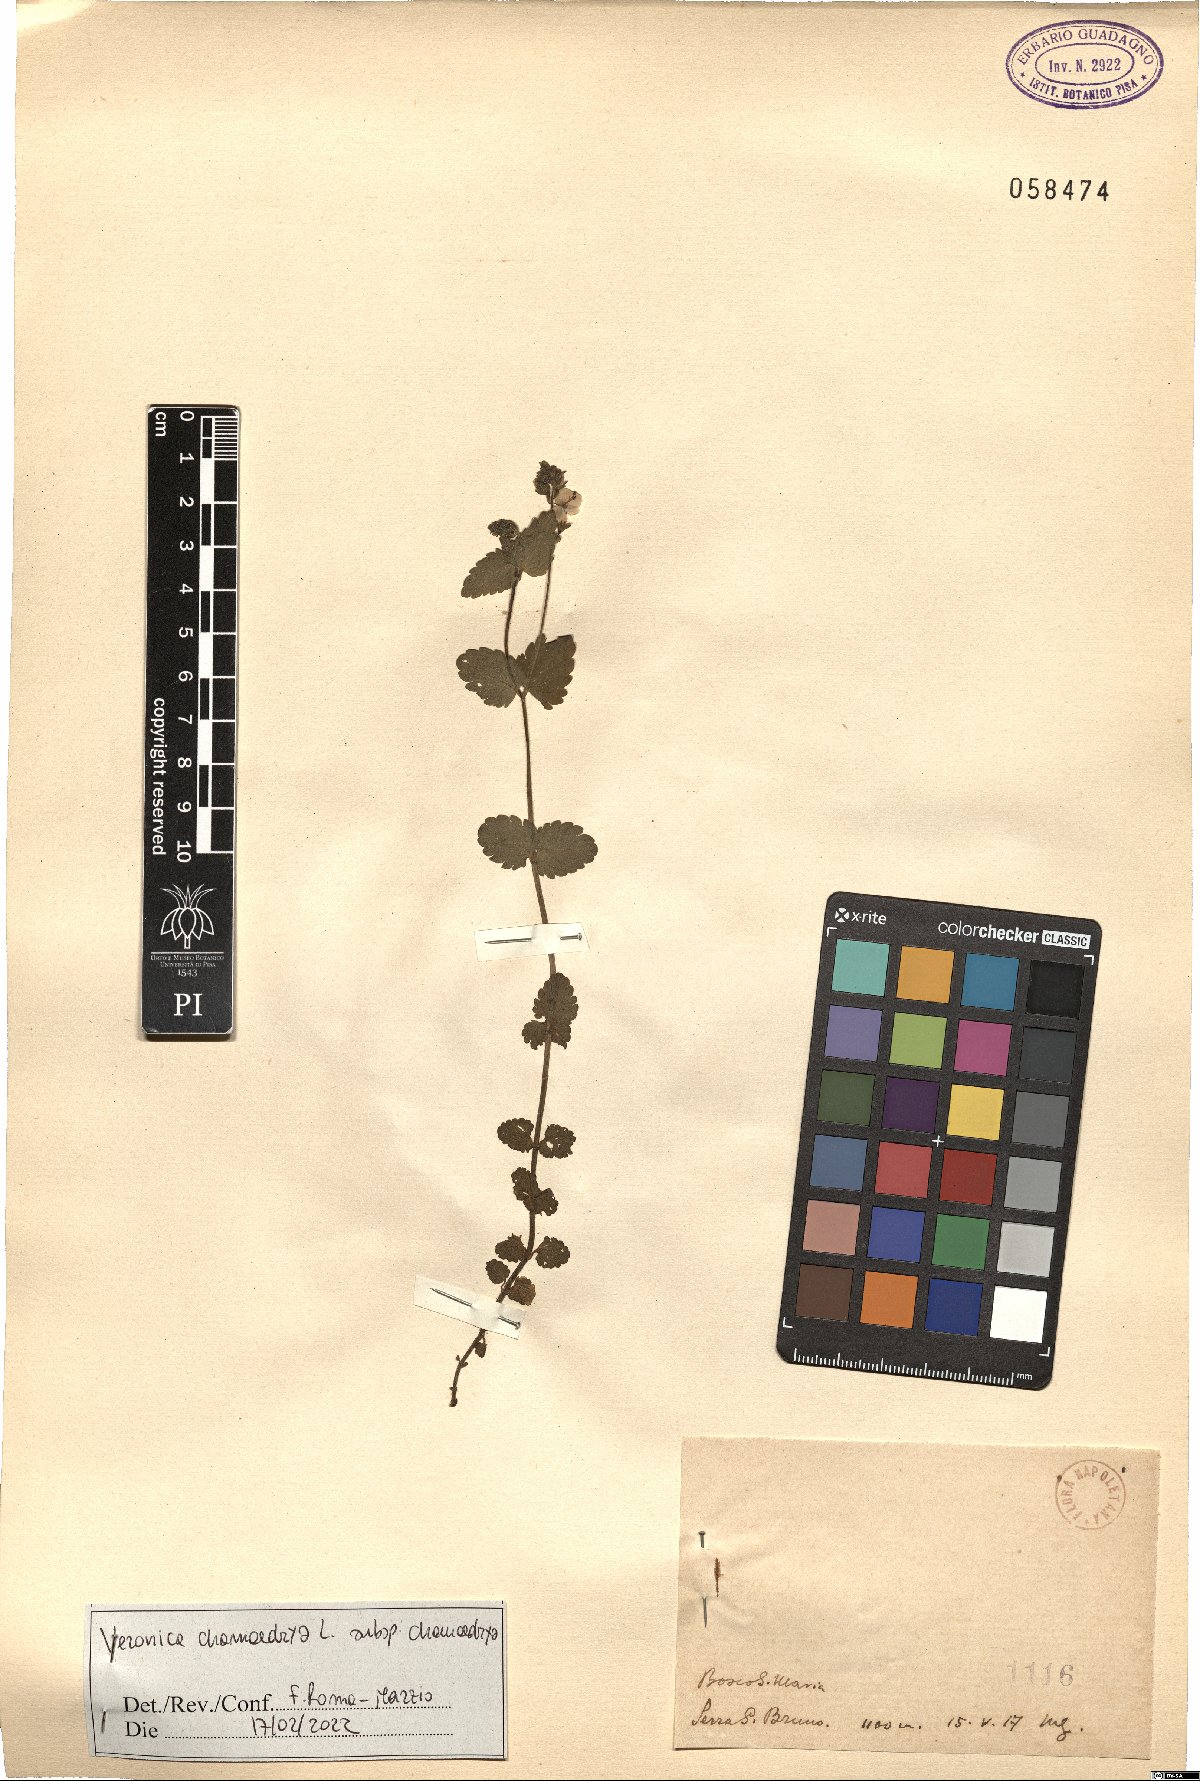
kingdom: Plantae
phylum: Tracheophyta
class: Magnoliopsida
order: Lamiales
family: Plantaginaceae
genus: Veronica
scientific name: Veronica chamaedrys
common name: Germander speedwell
